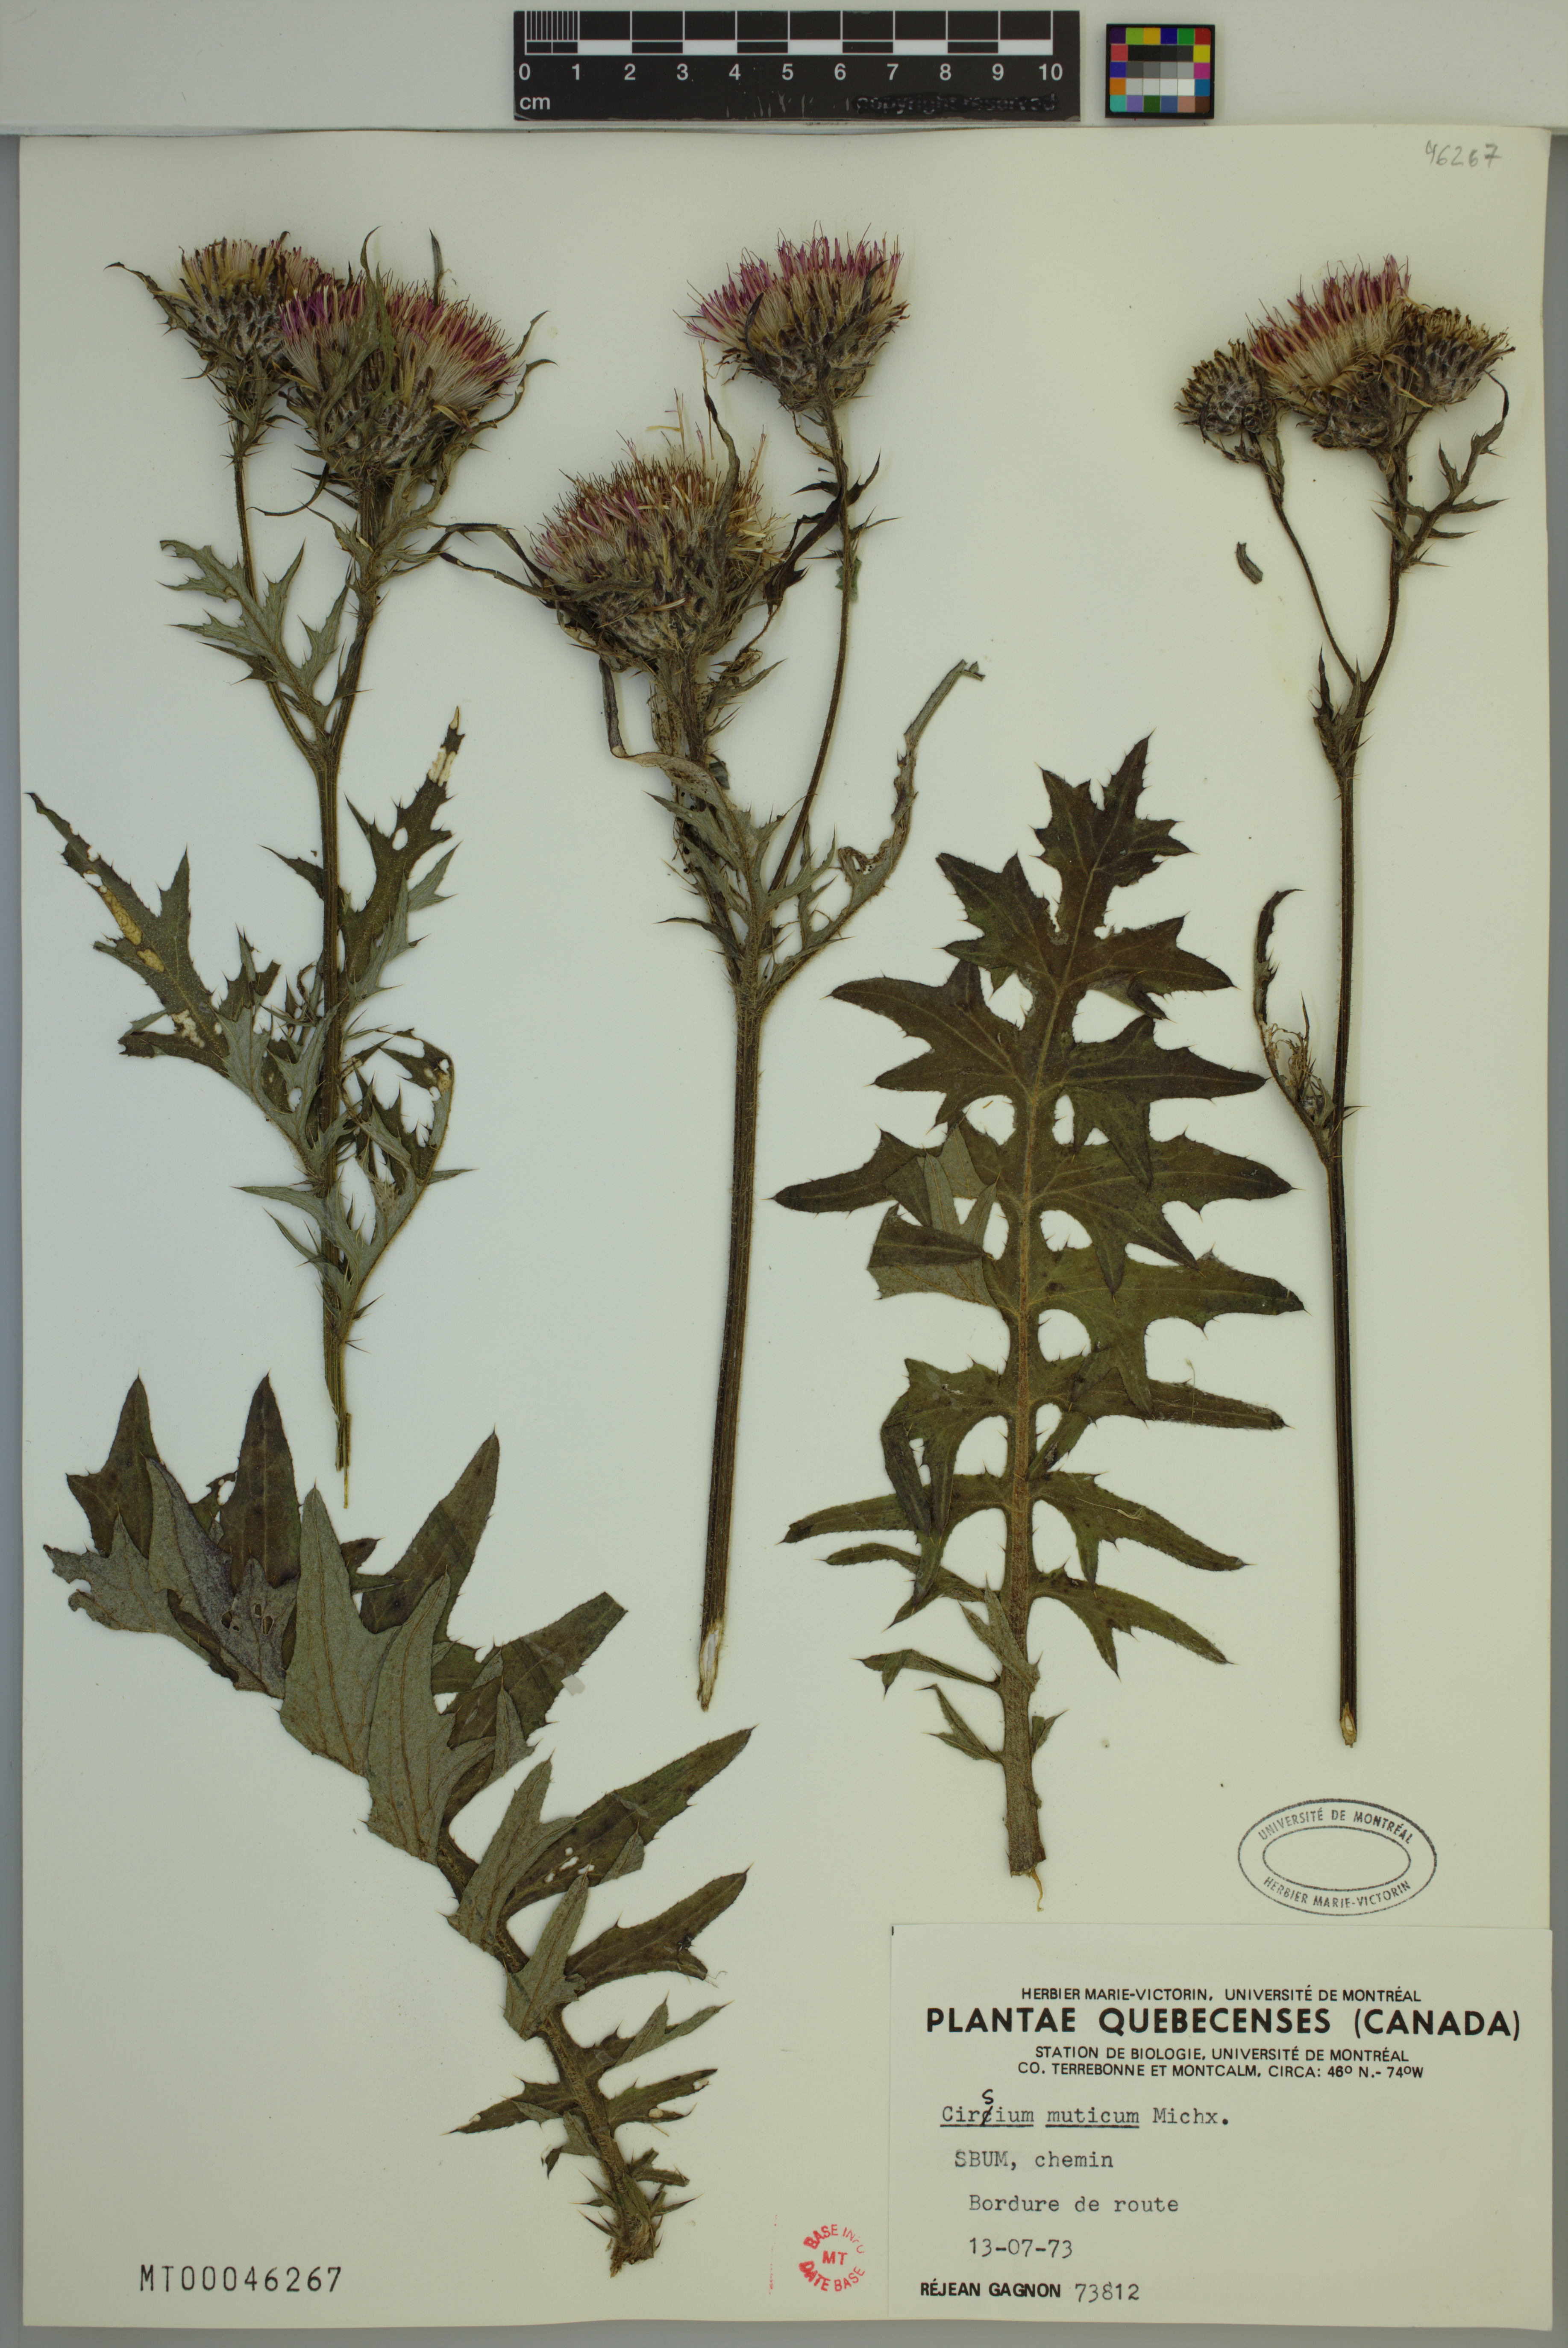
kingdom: Plantae
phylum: Tracheophyta
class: Magnoliopsida
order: Asterales
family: Asteraceae
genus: Cirsium
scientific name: Cirsium muticum
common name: Dunce-nettle
